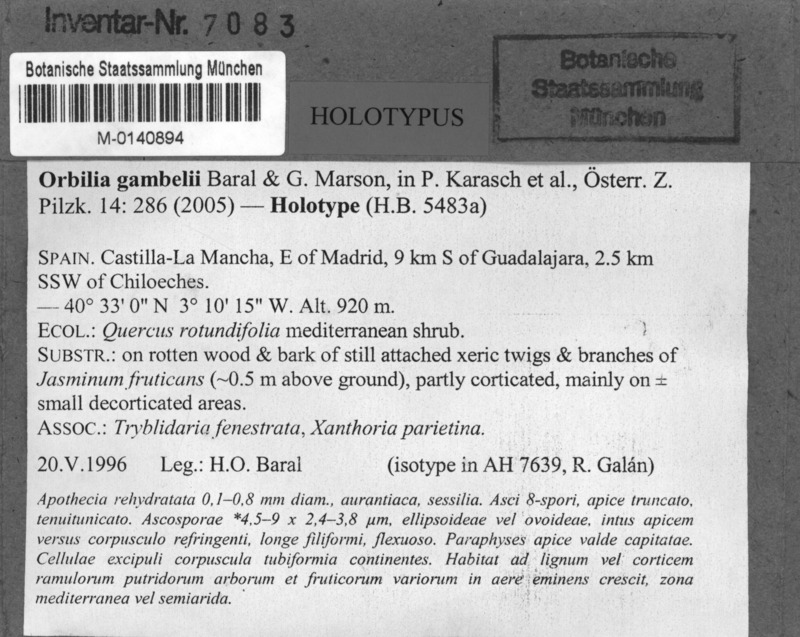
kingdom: Fungi
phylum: Ascomycota
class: Orbiliomycetes
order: Orbiliales
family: Orbiliaceae
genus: Orbilia
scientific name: Orbilia gambelii
